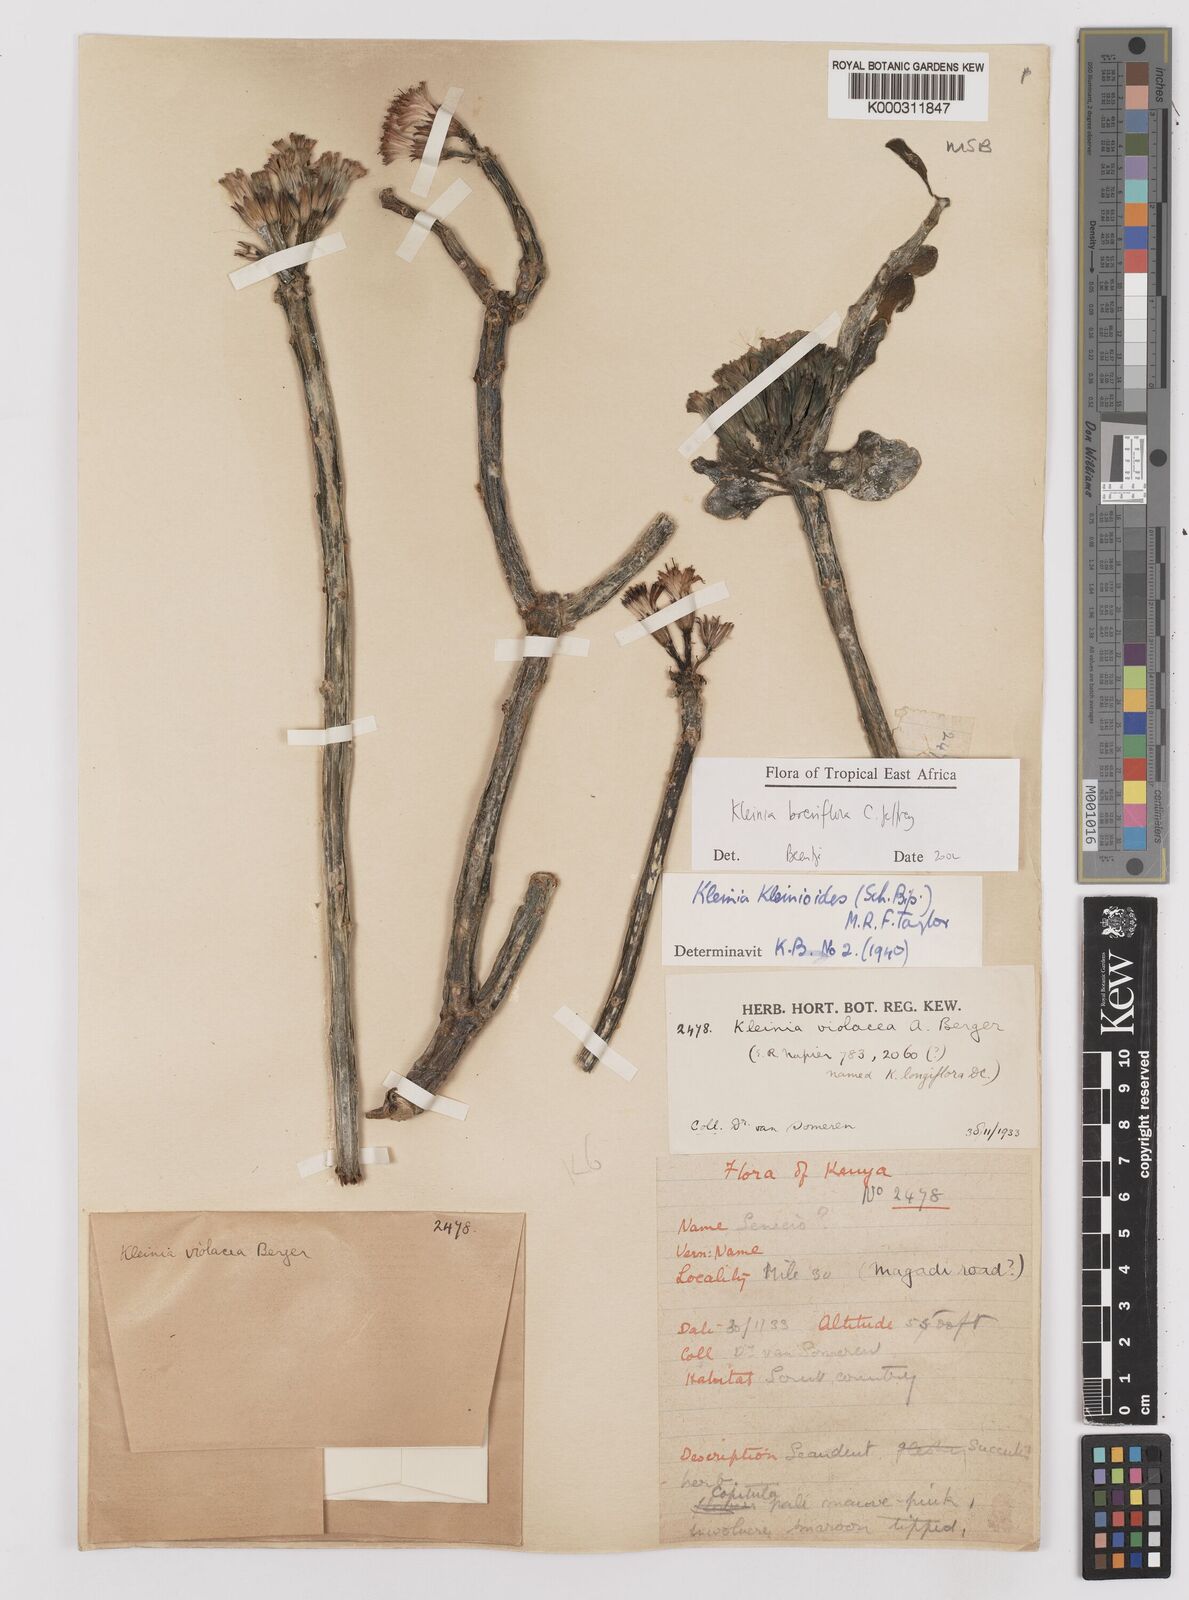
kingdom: Plantae
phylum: Tracheophyta
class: Magnoliopsida
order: Asterales
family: Asteraceae
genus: Kleinia
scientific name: Kleinia polycotoma
